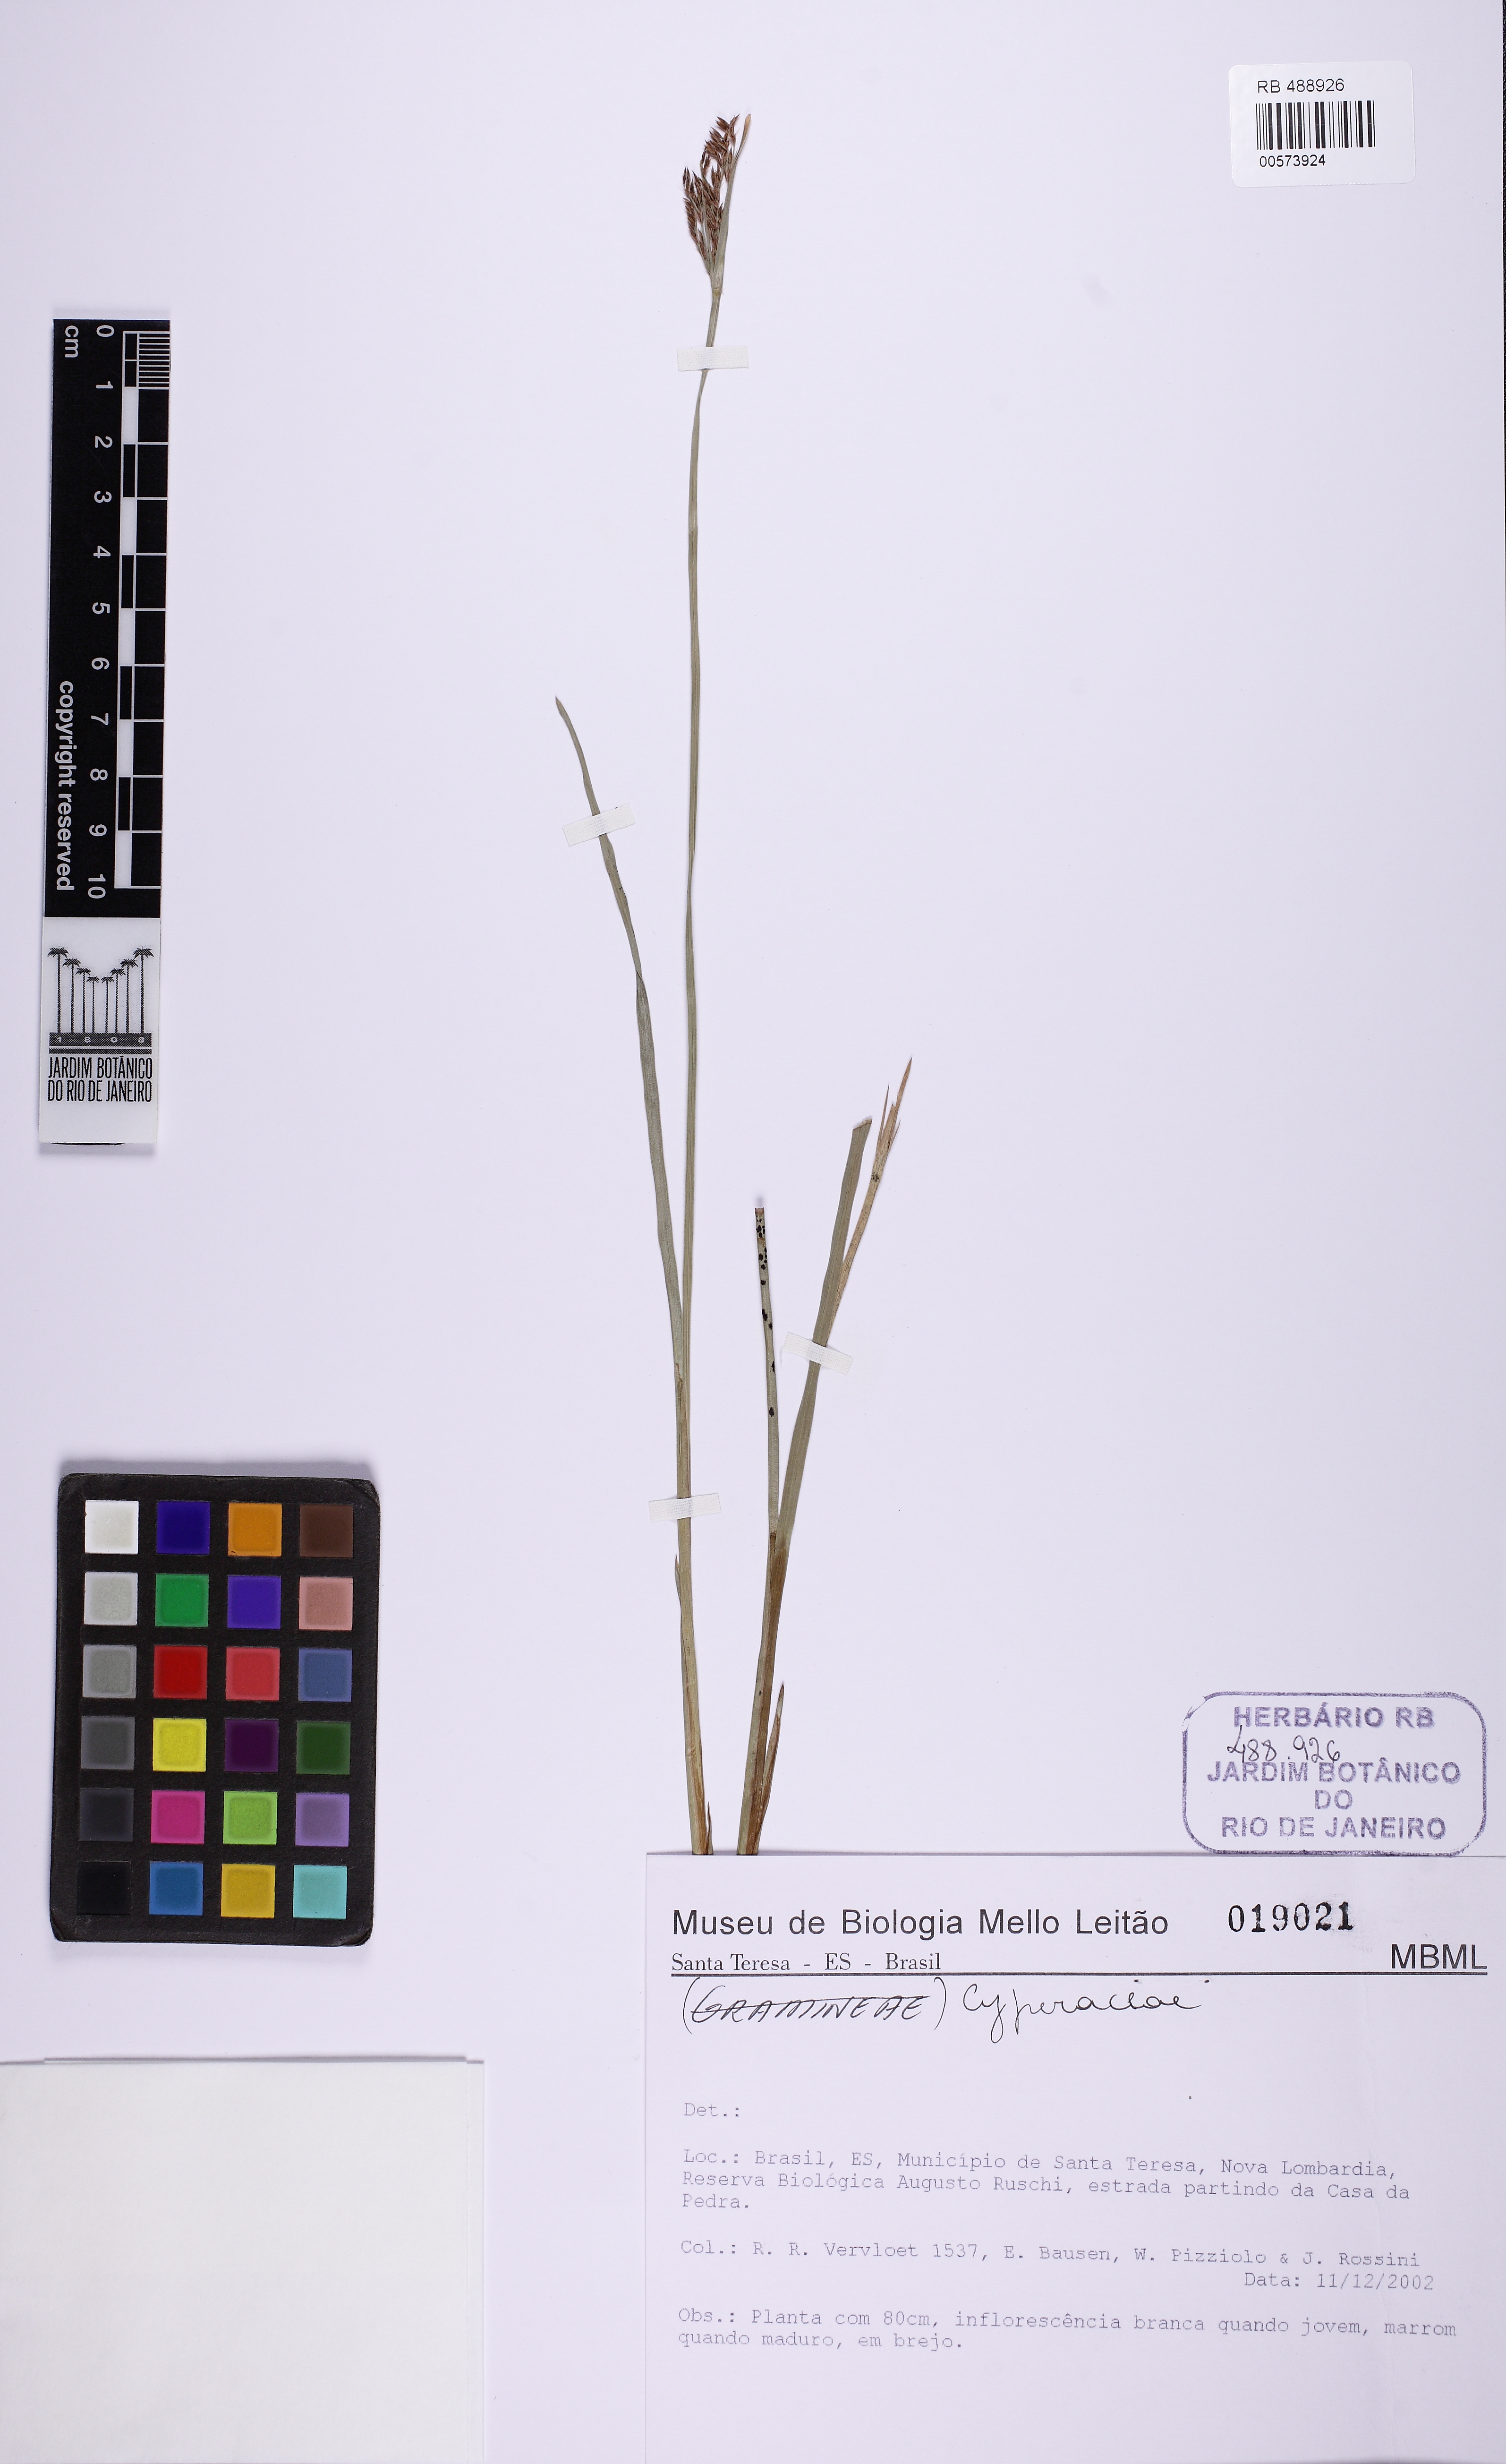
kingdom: Plantae
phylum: Tracheophyta
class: Liliopsida
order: Poales
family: Cyperaceae
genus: Fimbristylis
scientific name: Fimbristylis complanata
